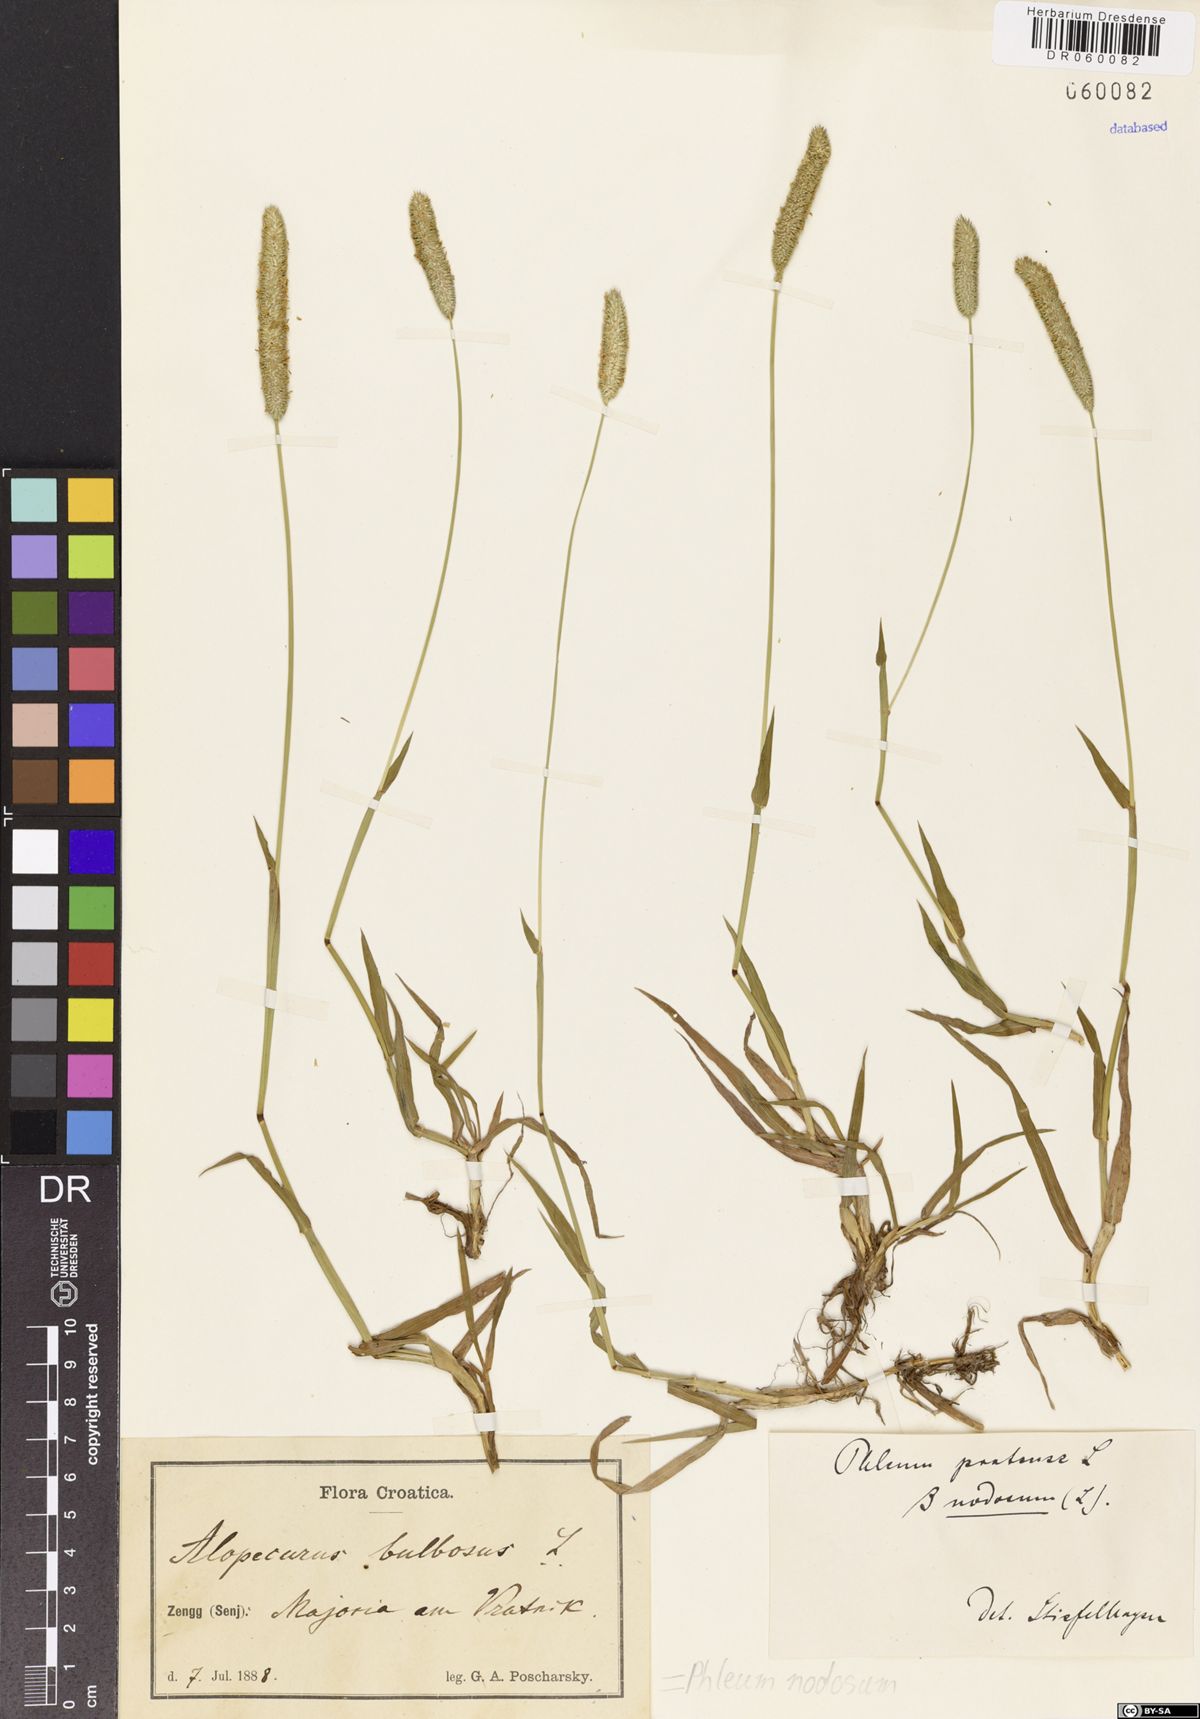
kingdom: Plantae
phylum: Tracheophyta
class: Liliopsida
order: Poales
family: Poaceae
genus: Phleum
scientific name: Phleum pratense
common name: Timothy grass
